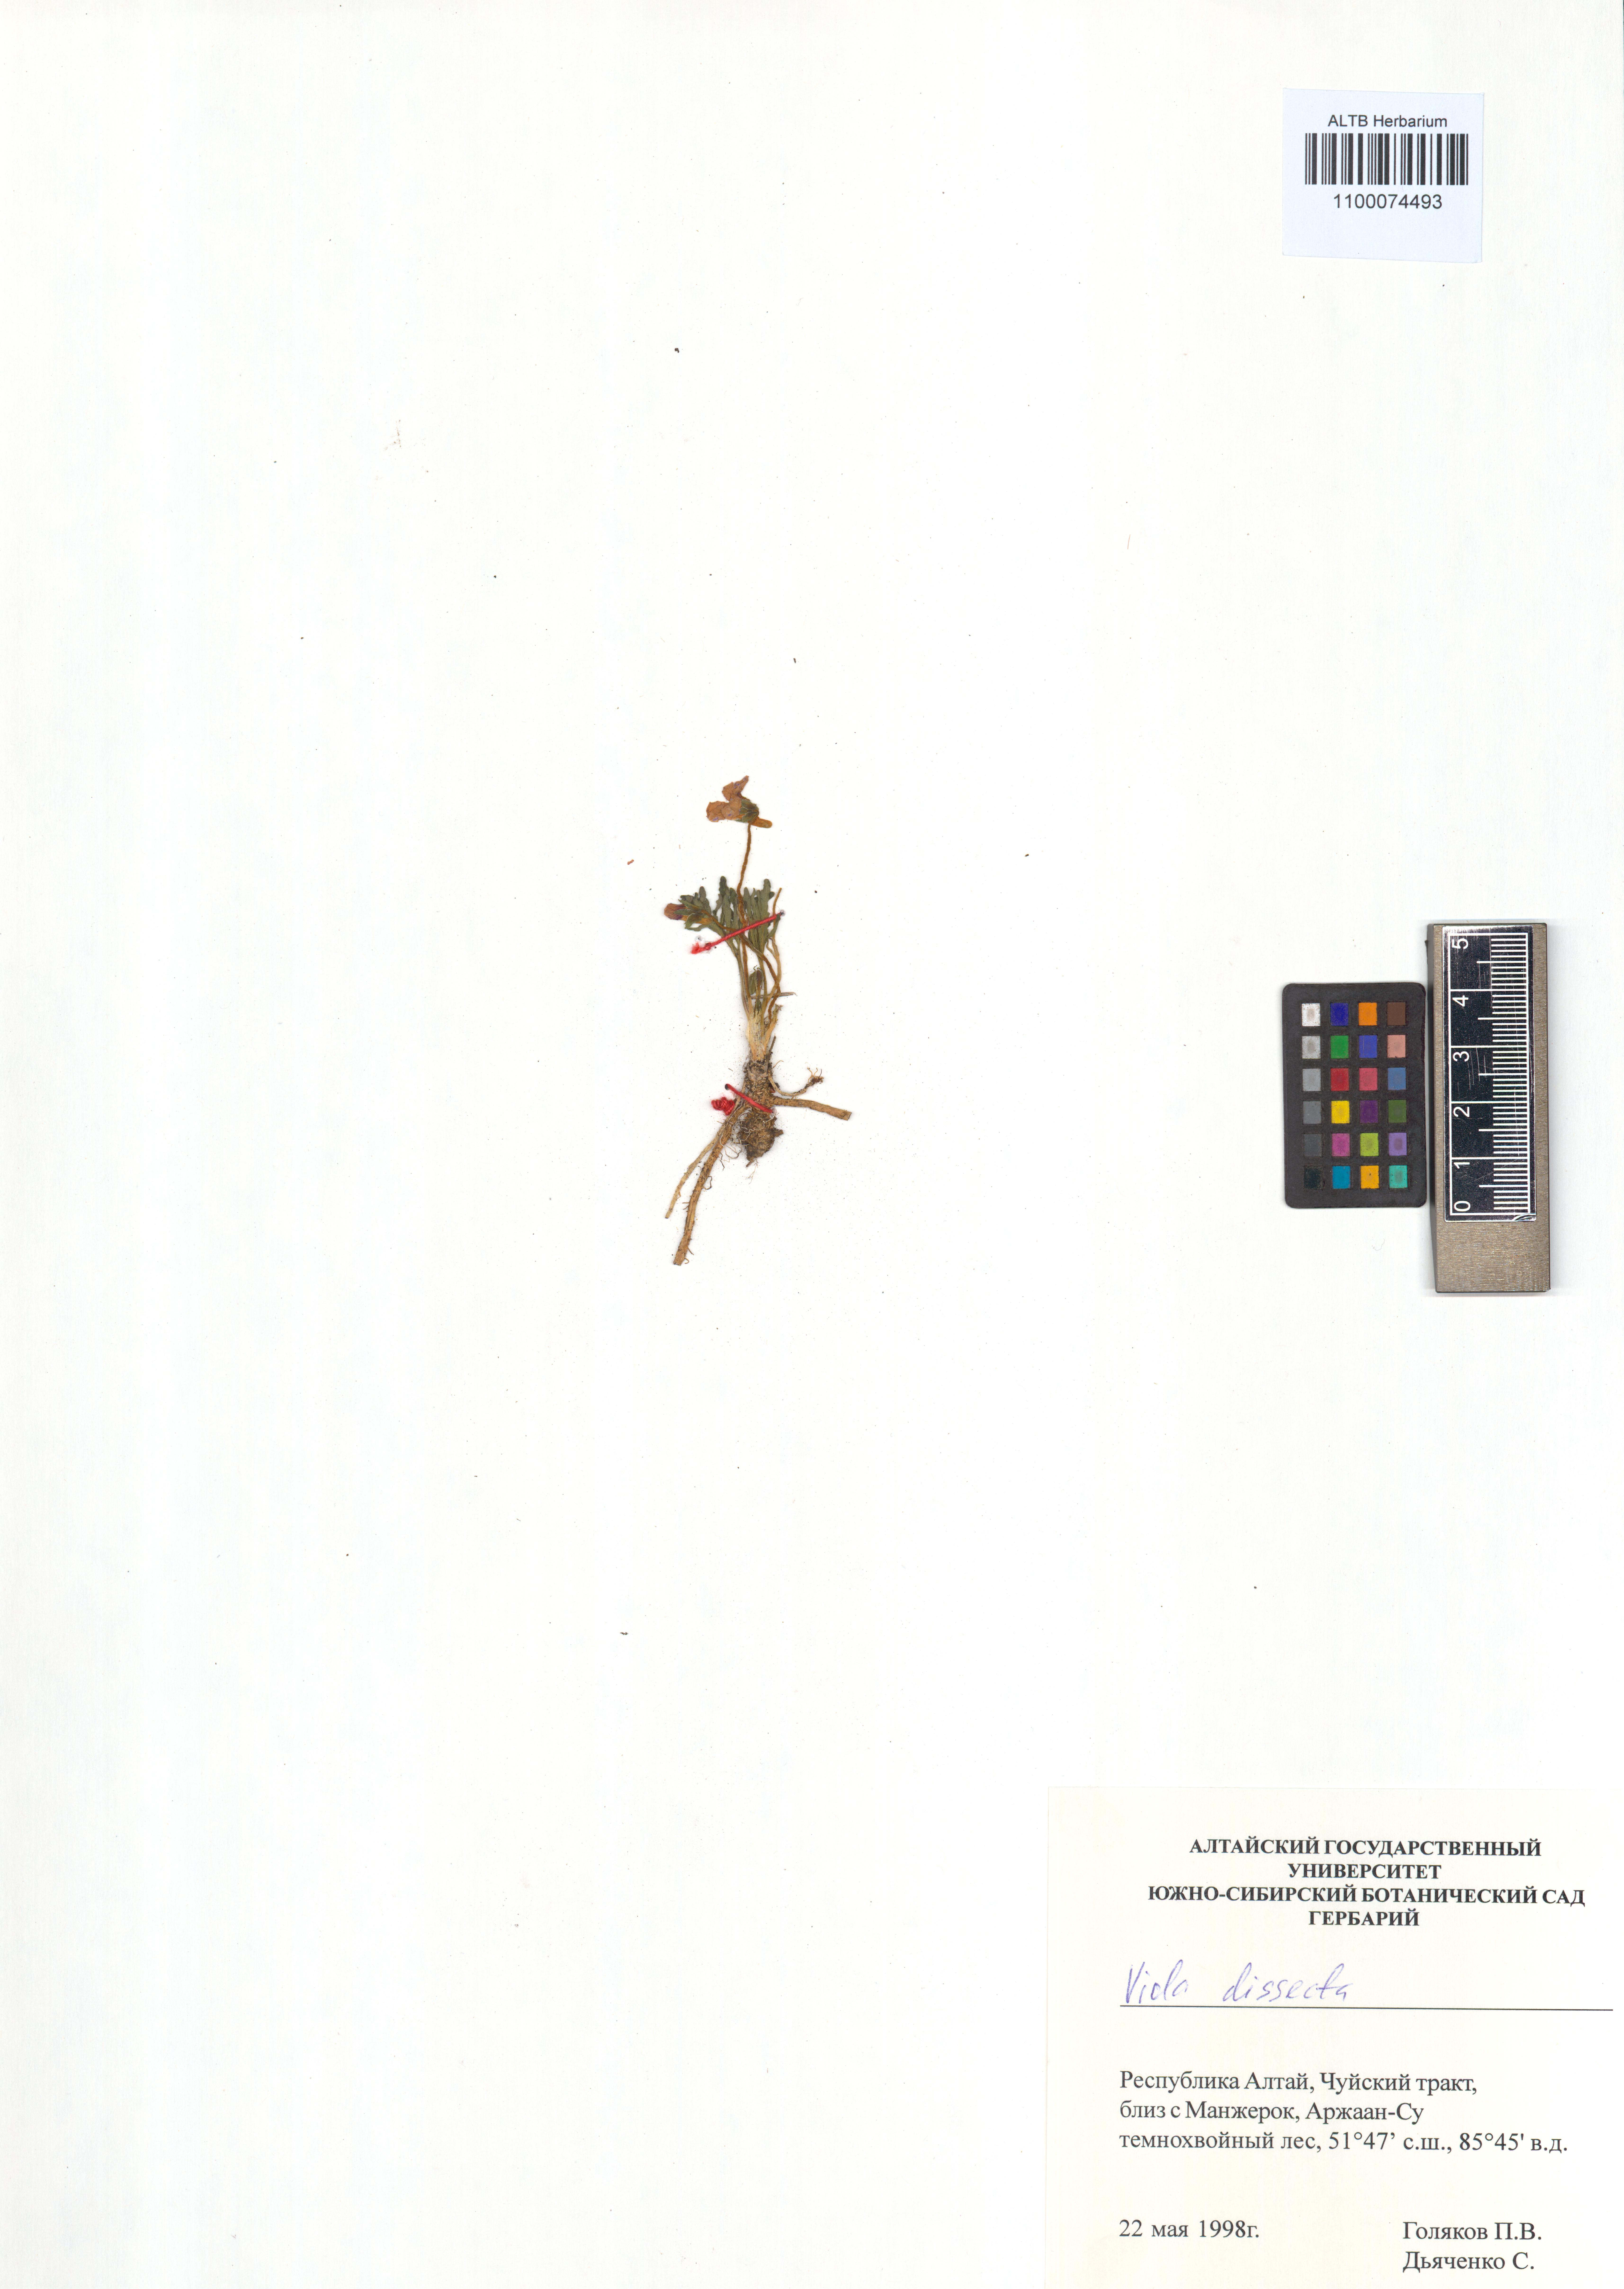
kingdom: Plantae
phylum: Tracheophyta
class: Magnoliopsida
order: Malpighiales
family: Violaceae
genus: Viola
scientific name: Viola multifida
